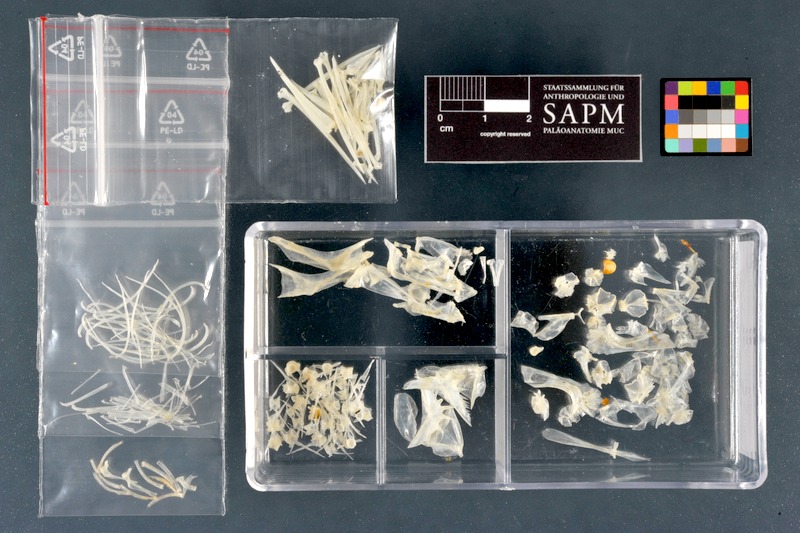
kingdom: Animalia
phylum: Chordata
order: Perciformes
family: Percidae
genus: Gymnocephalus
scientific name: Gymnocephalus cernua
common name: Ruffe
